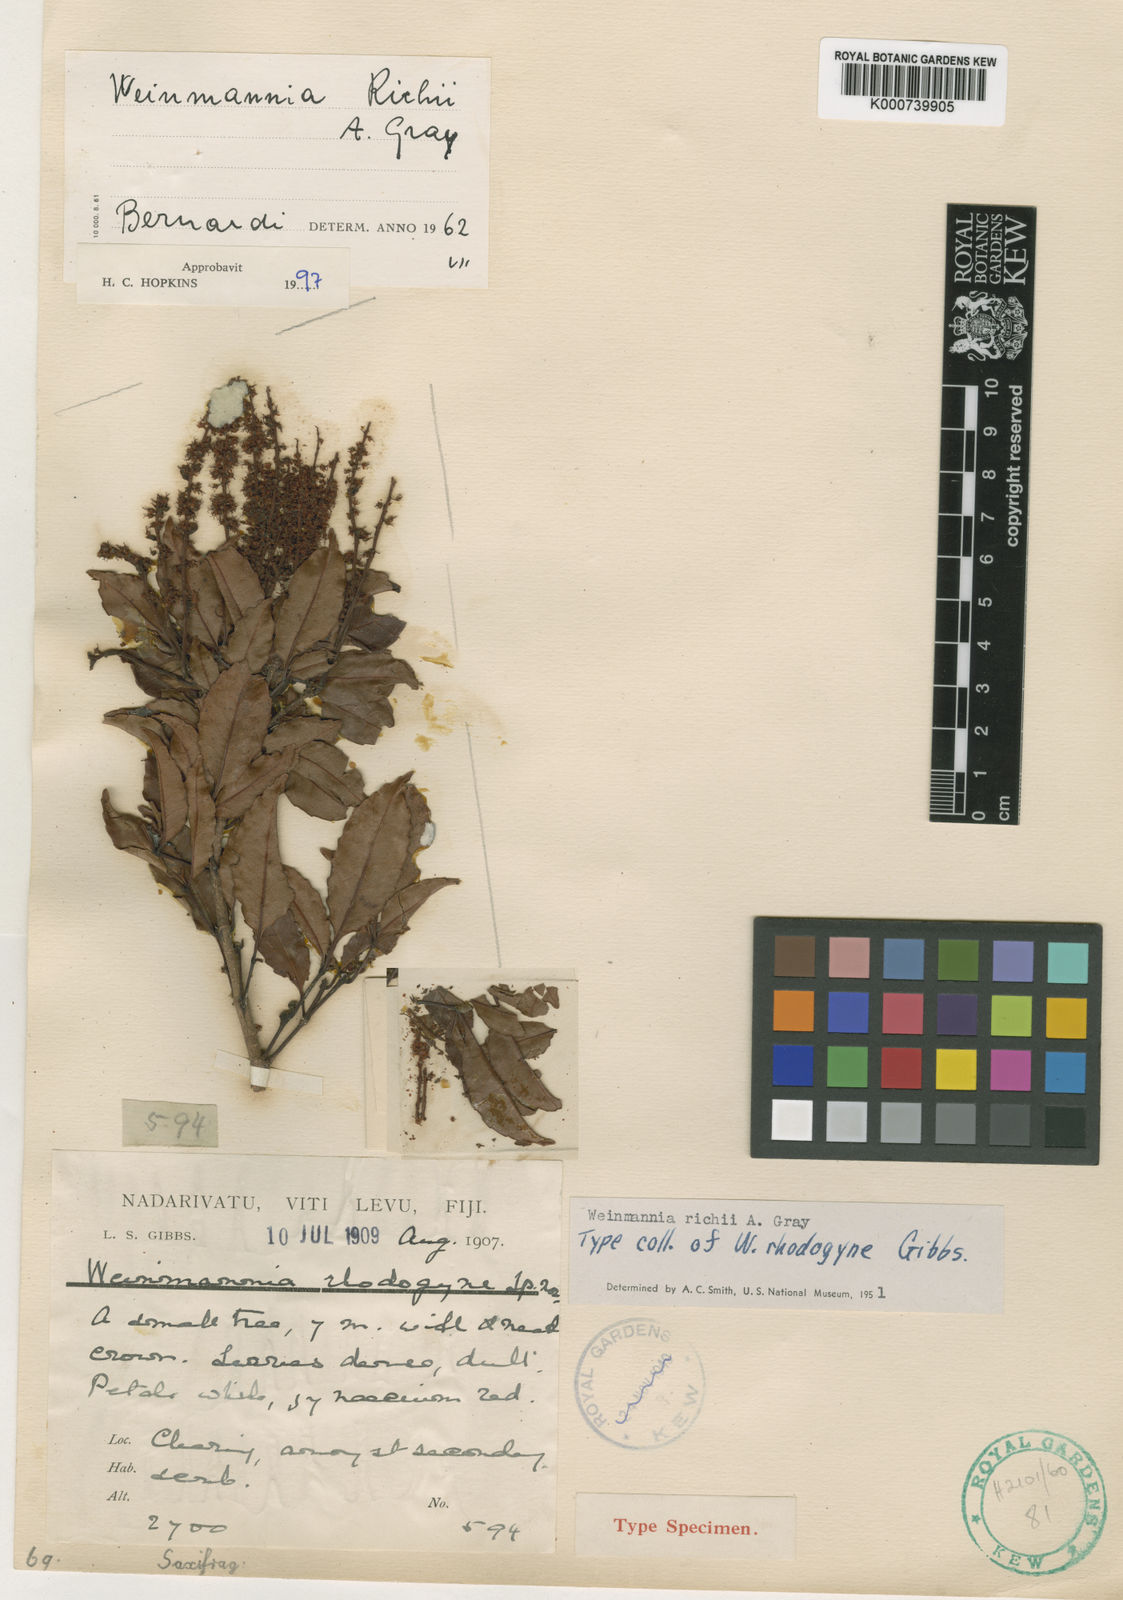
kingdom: Plantae
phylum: Tracheophyta
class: Magnoliopsida
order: Oxalidales
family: Cunoniaceae
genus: Pterophylla
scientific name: Pterophylla richii
